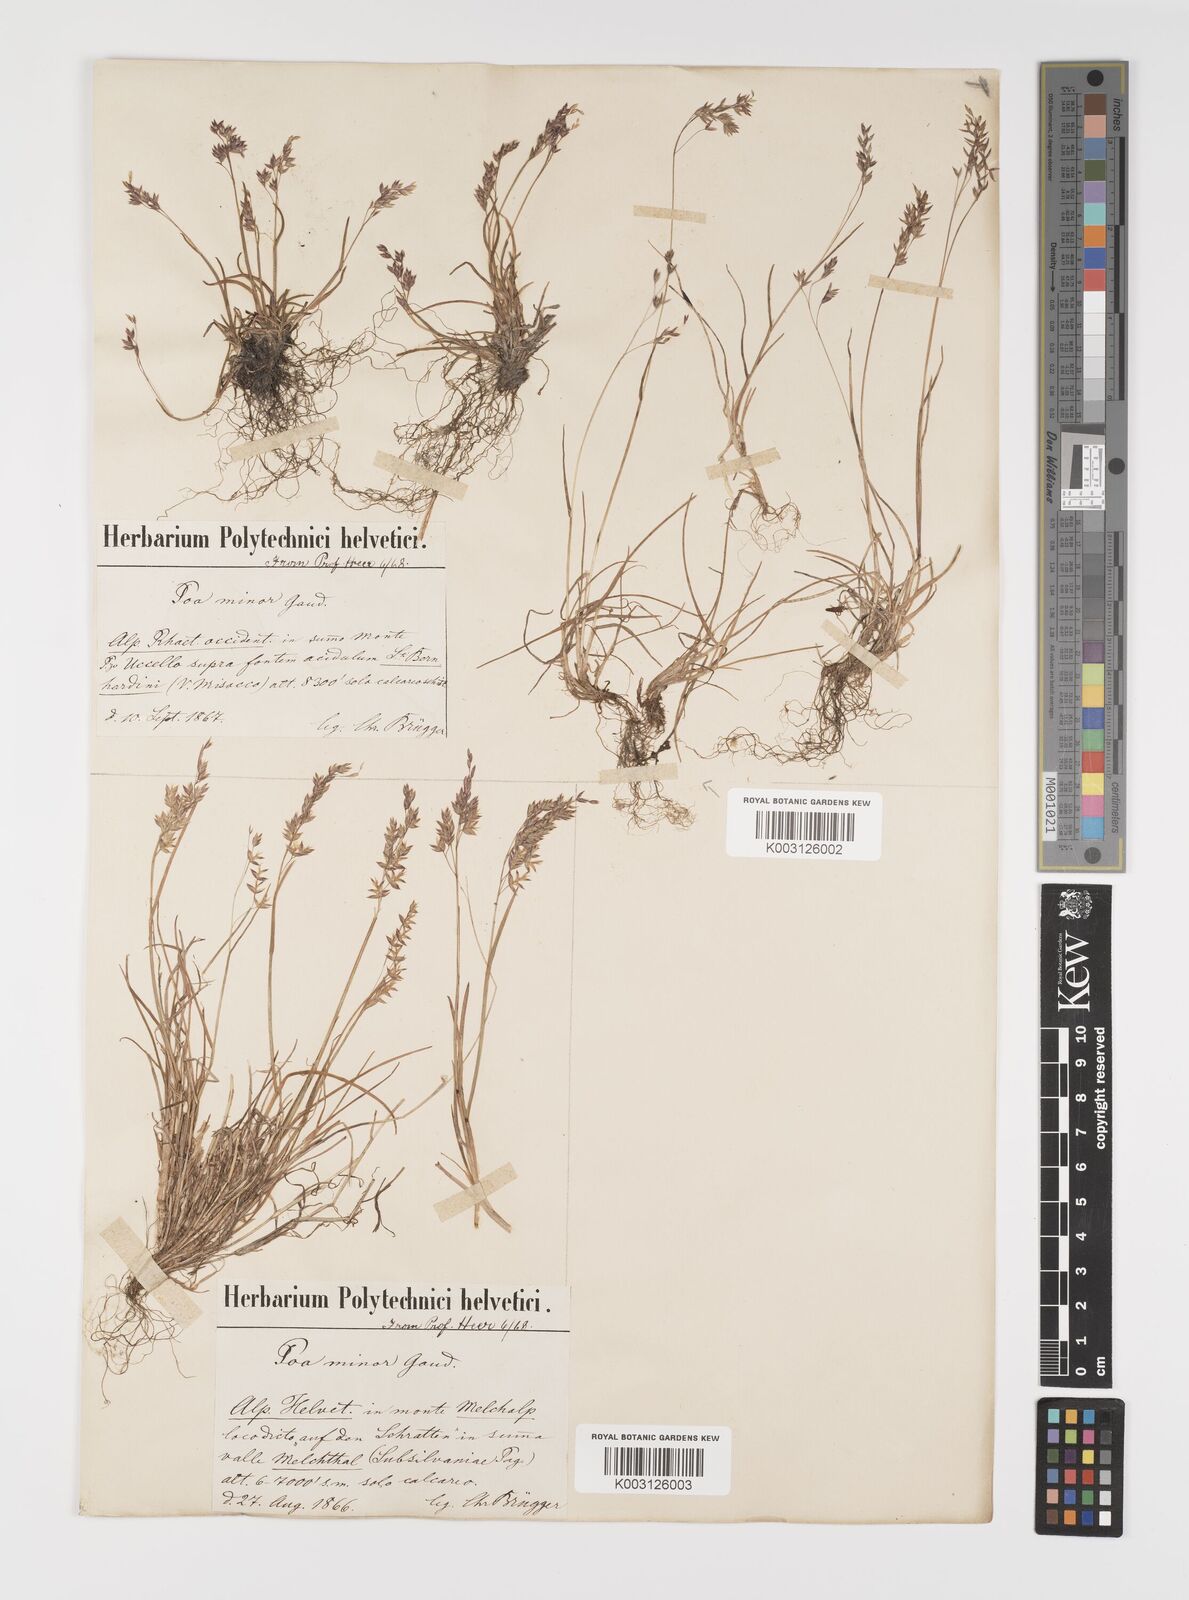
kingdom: Plantae
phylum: Tracheophyta
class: Liliopsida
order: Poales
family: Poaceae
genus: Poa
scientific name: Poa minor
